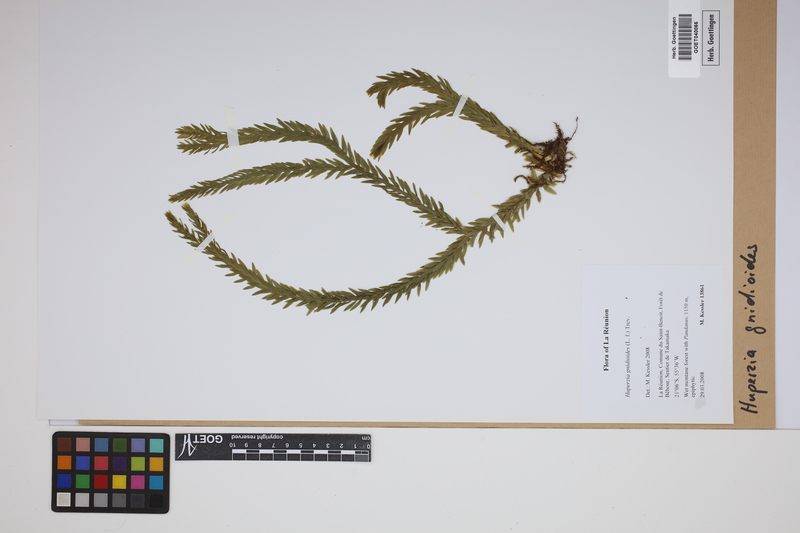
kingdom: Plantae
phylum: Tracheophyta
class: Lycopodiopsida
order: Lycopodiales
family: Lycopodiaceae
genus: Phlegmariurus
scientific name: Phlegmariurus gnidioides
